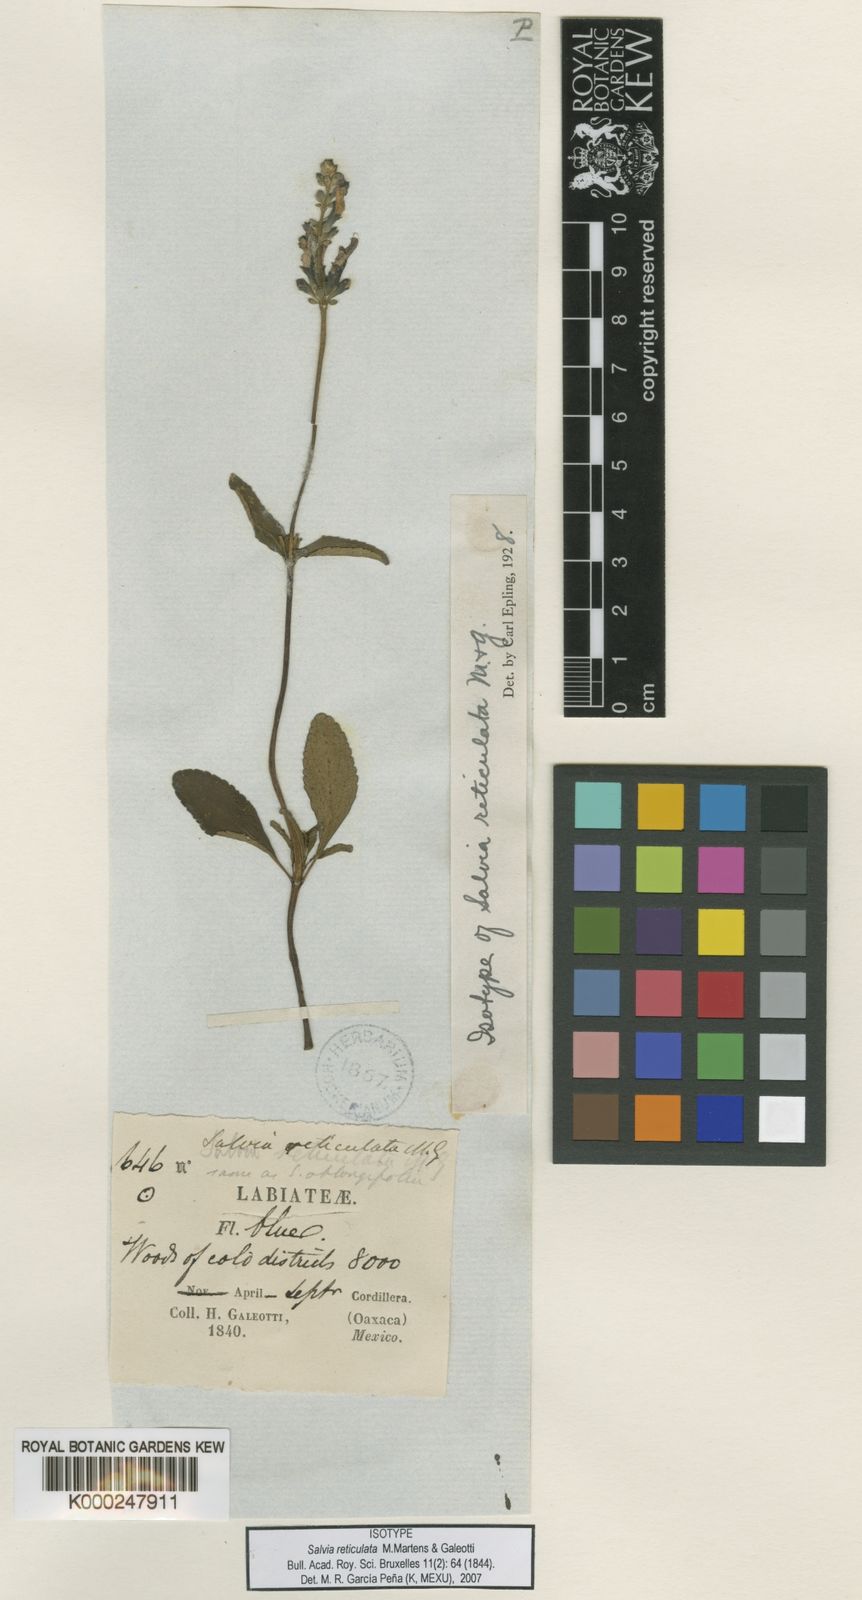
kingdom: Plantae
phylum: Tracheophyta
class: Magnoliopsida
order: Lamiales
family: Lamiaceae
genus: Salvia
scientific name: Salvia prunelloides
